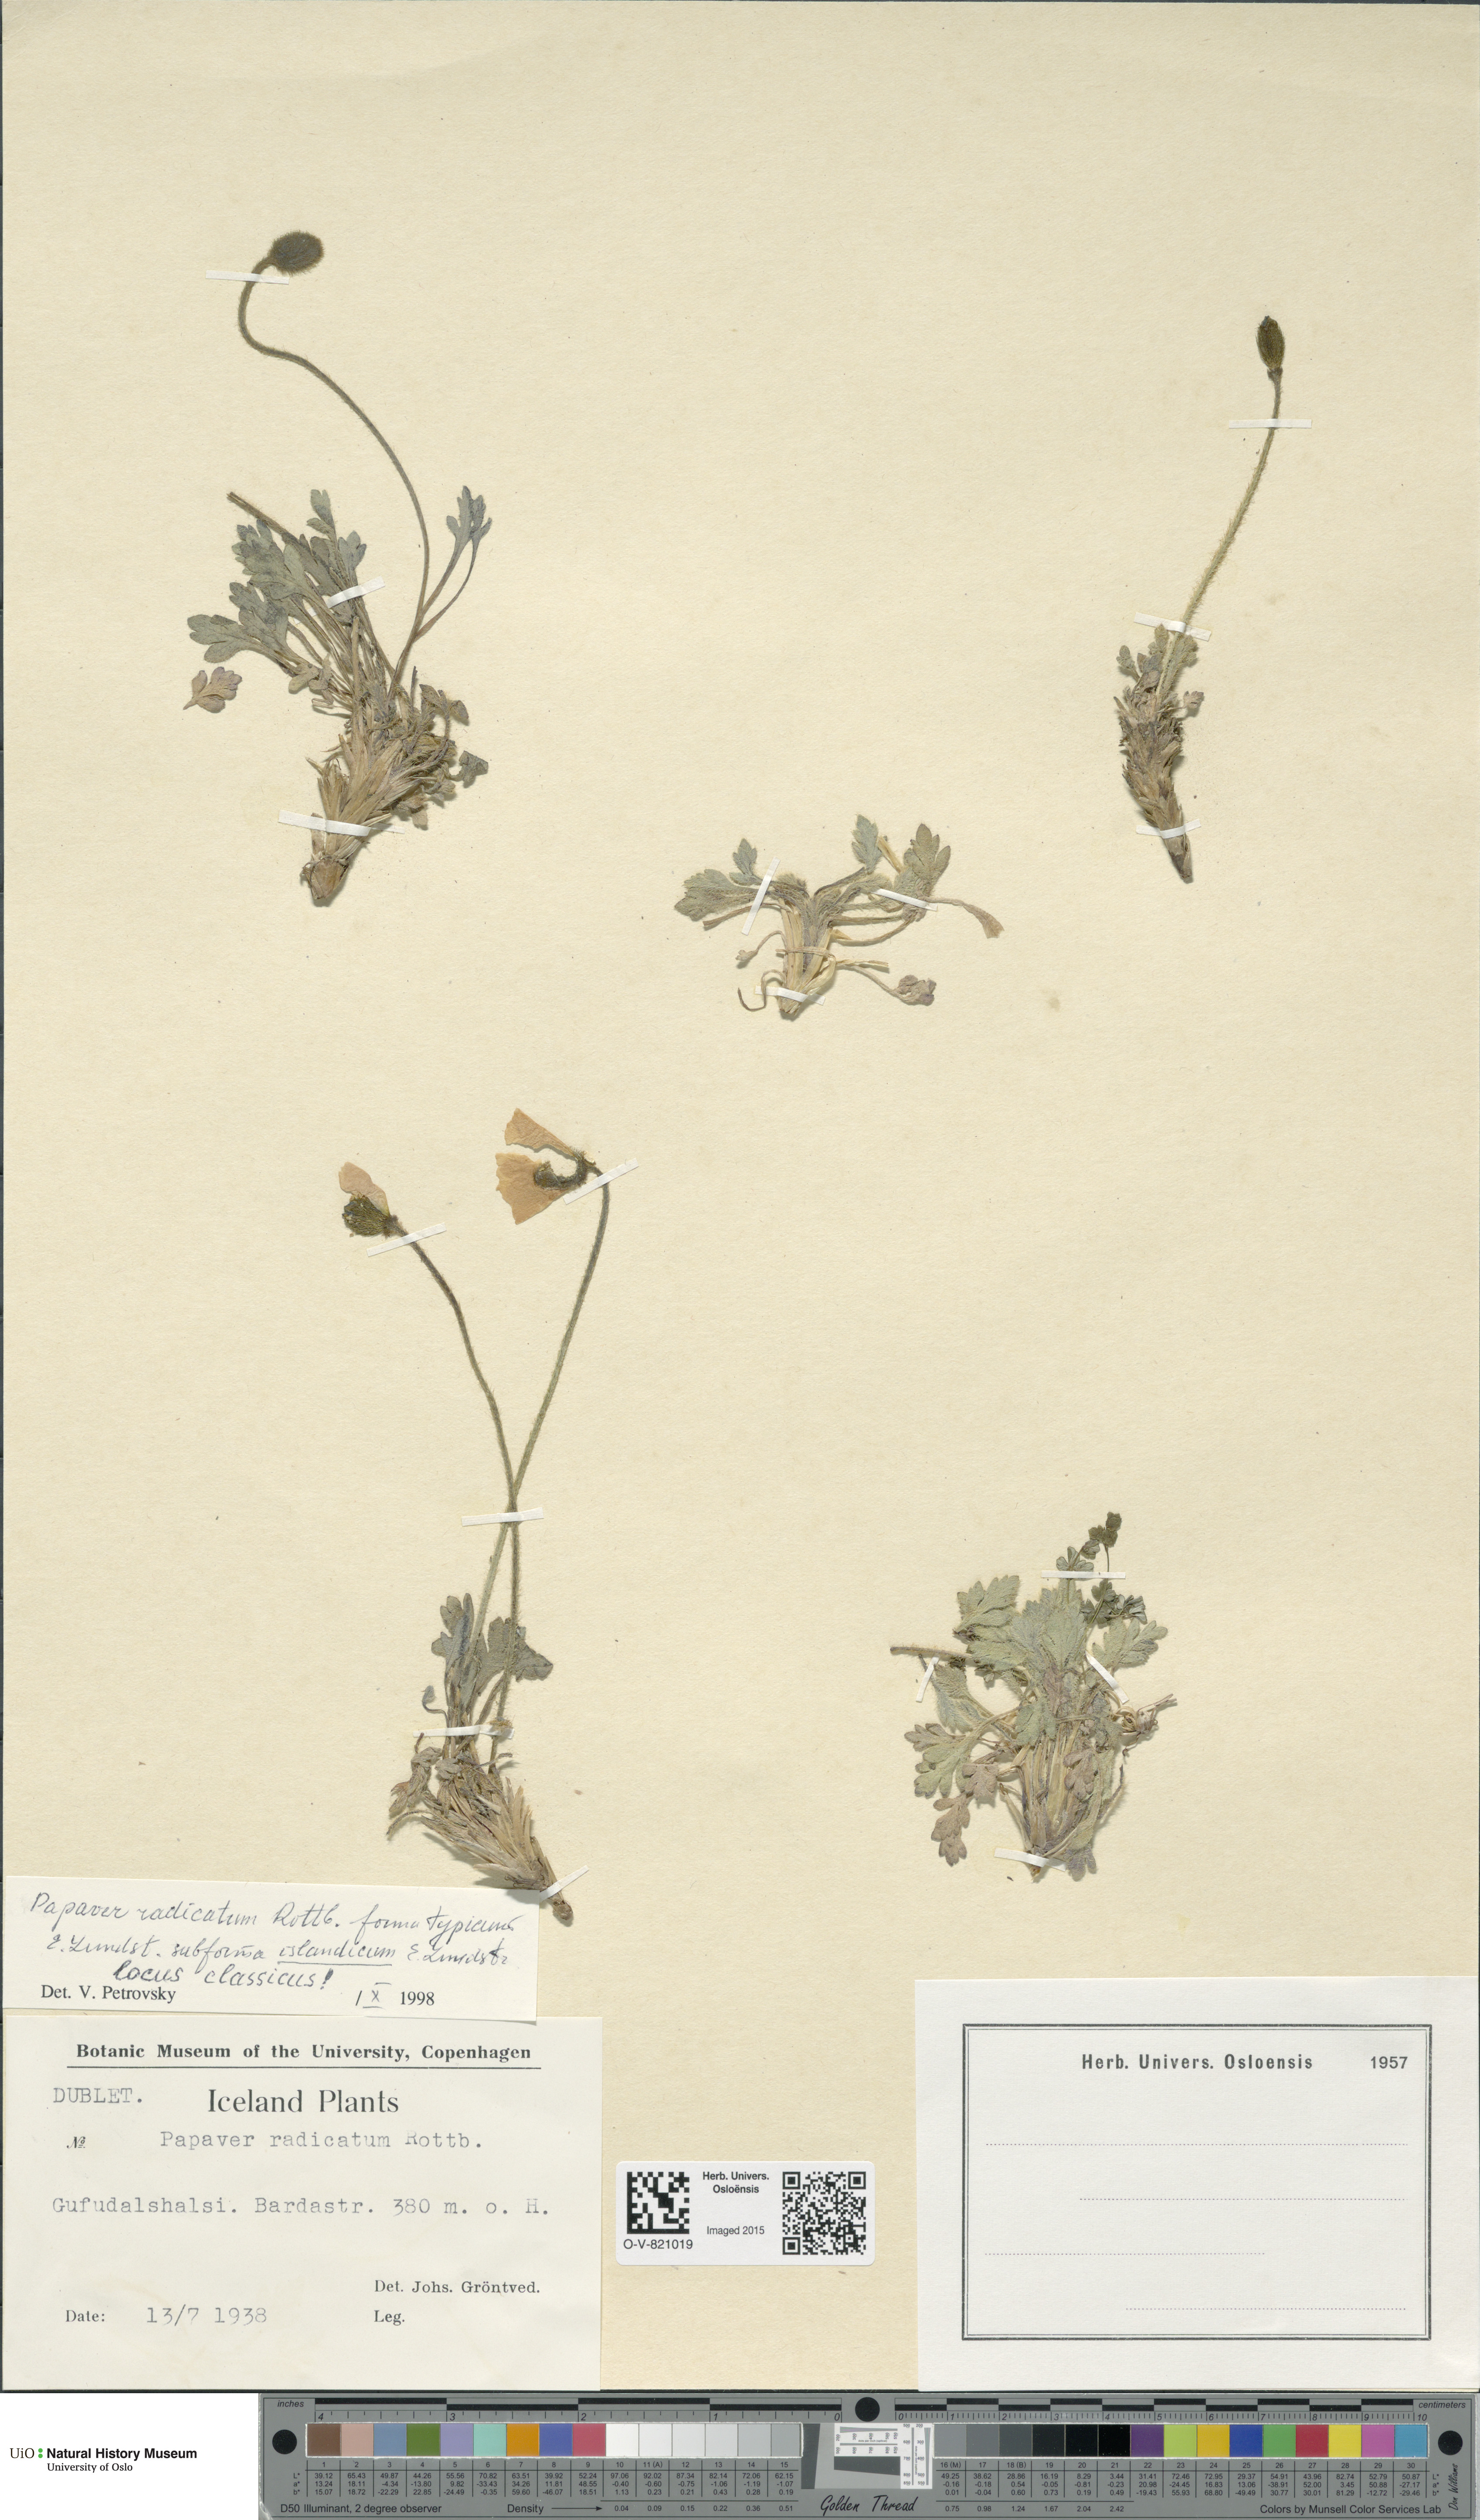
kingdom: Plantae
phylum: Tracheophyta
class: Magnoliopsida
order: Ranunculales
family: Papaveraceae
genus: Papaver
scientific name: Papaver radicatum
